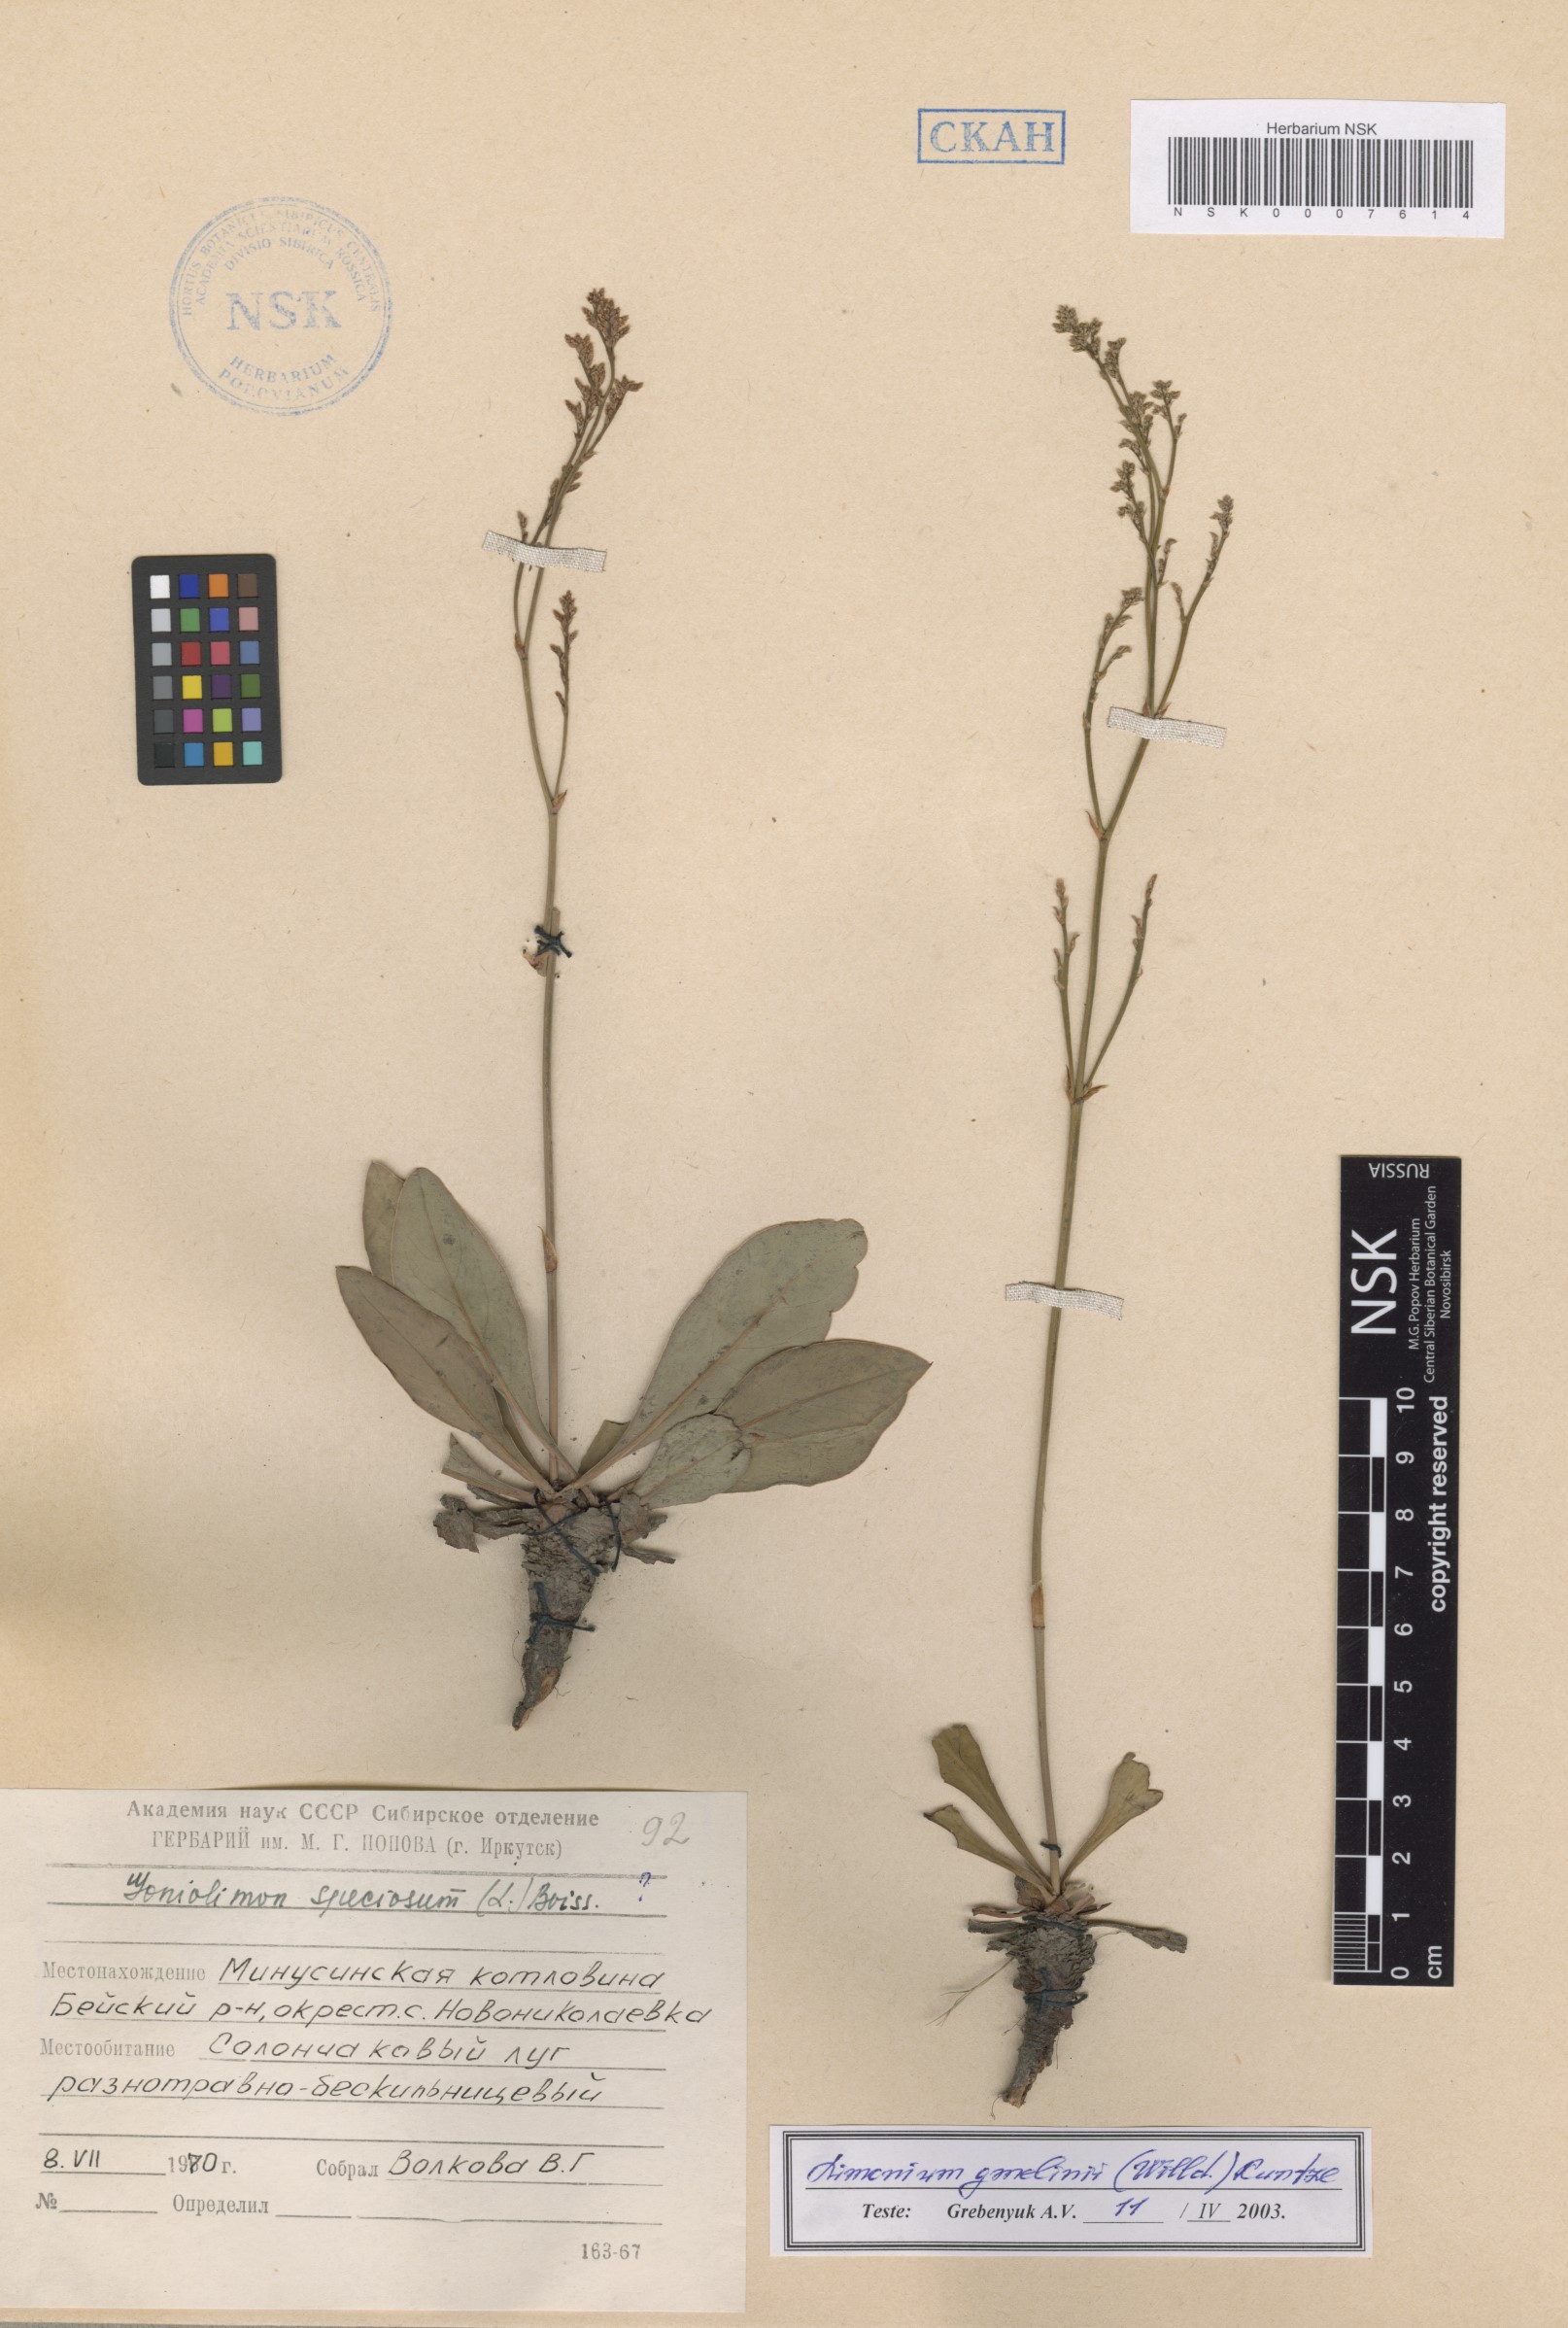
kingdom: Plantae
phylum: Tracheophyta
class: Magnoliopsida
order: Caryophyllales
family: Plumbaginaceae
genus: Limonium
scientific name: Limonium gmelini
